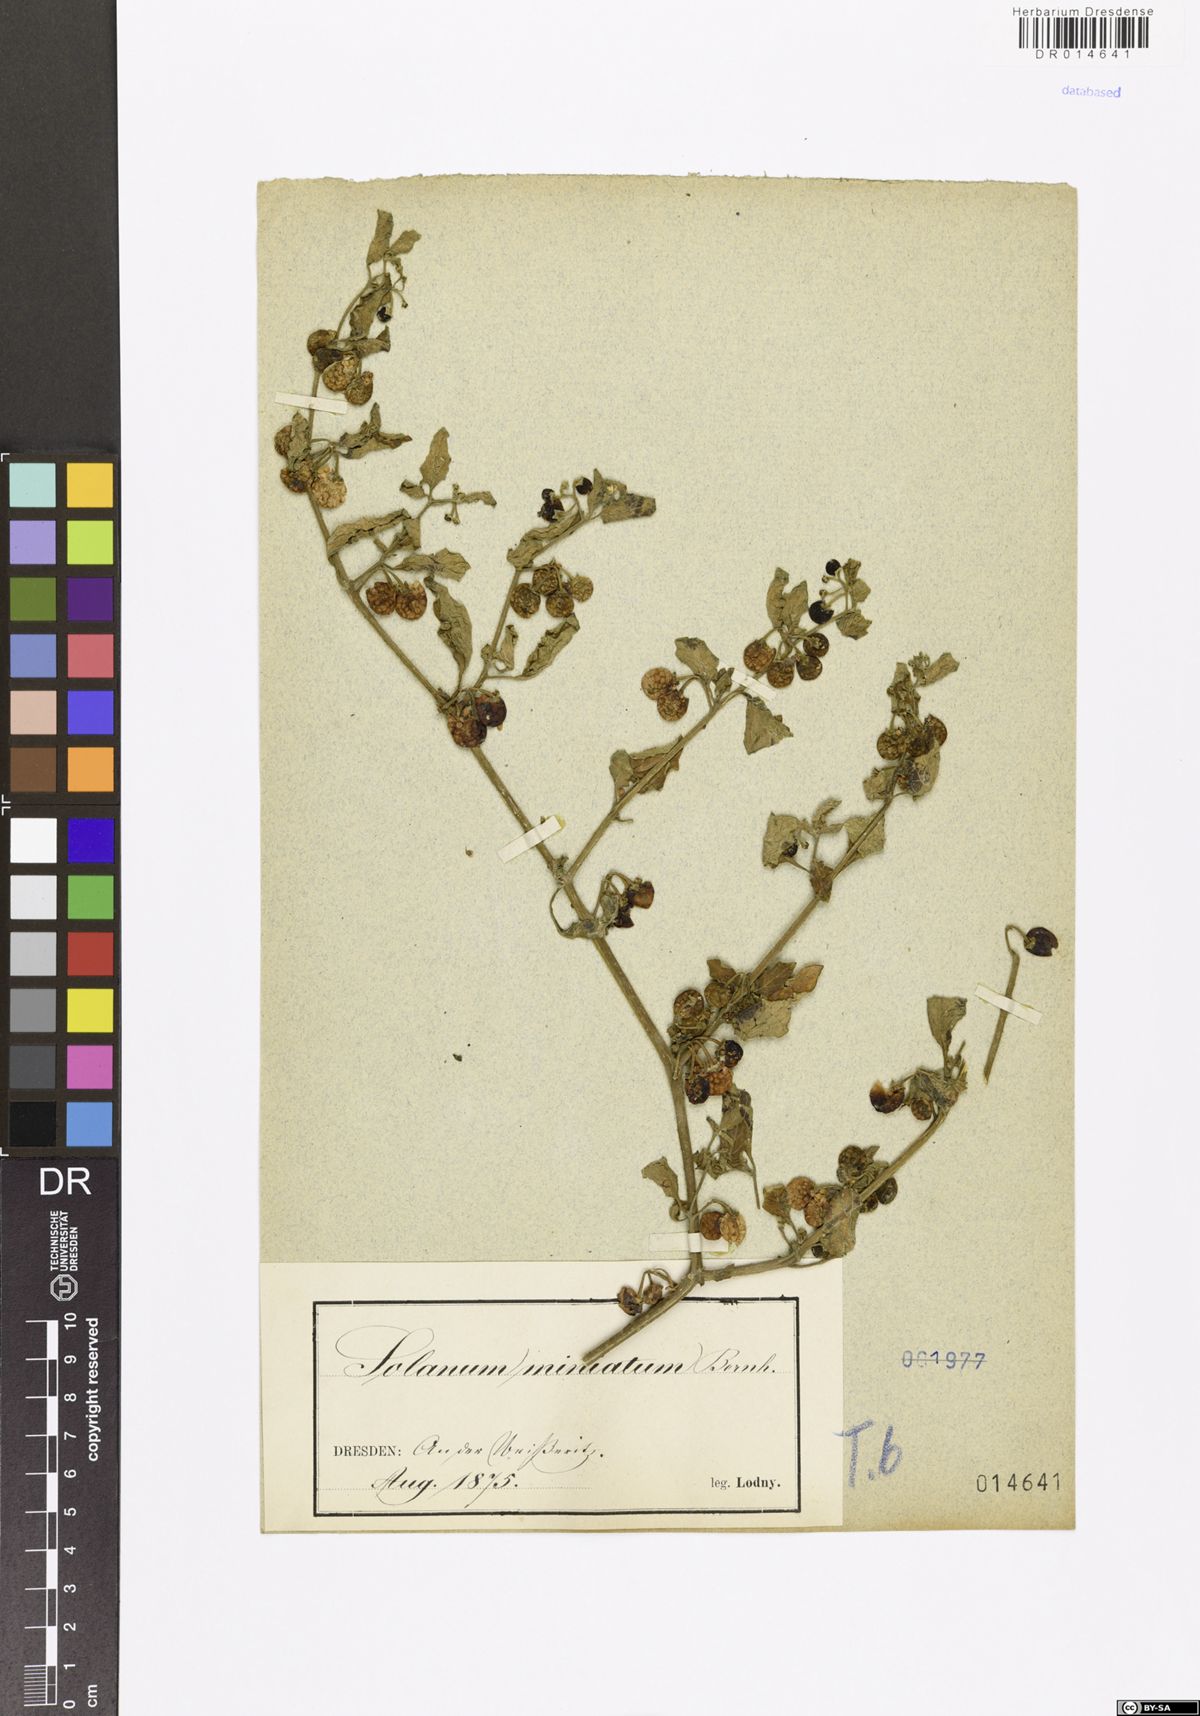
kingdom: Plantae
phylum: Tracheophyta
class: Magnoliopsida
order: Solanales
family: Solanaceae
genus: Solanum
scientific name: Solanum alatum
